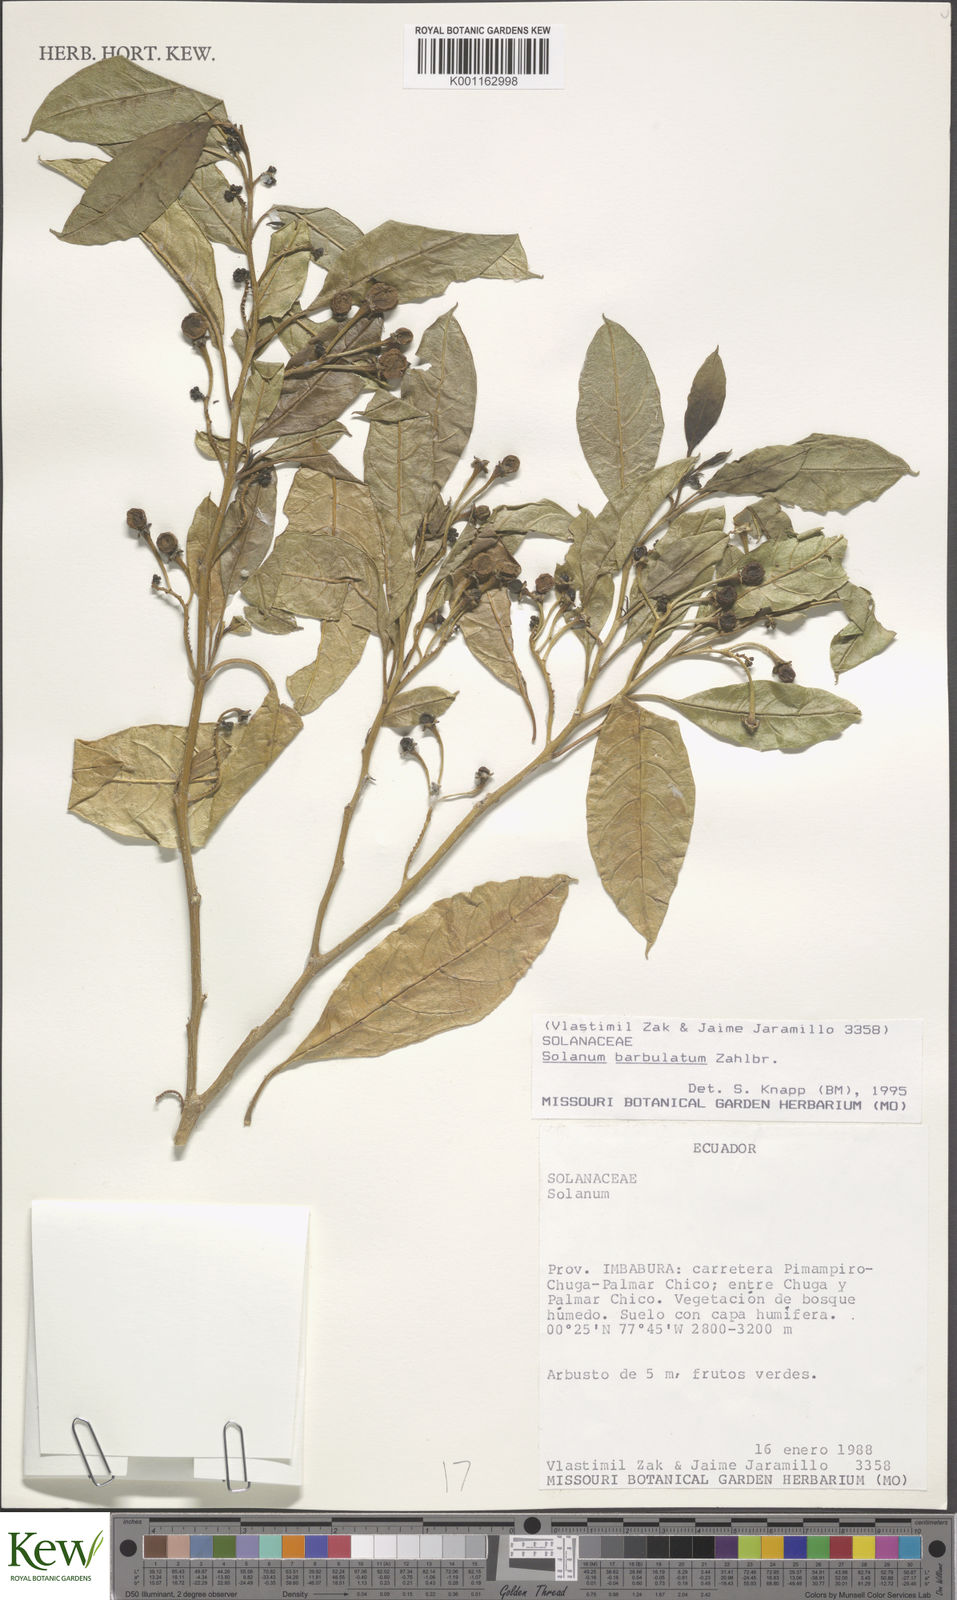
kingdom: Plantae
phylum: Tracheophyta
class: Magnoliopsida
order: Solanales
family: Solanaceae
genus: Solanum
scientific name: Solanum barbulatum
